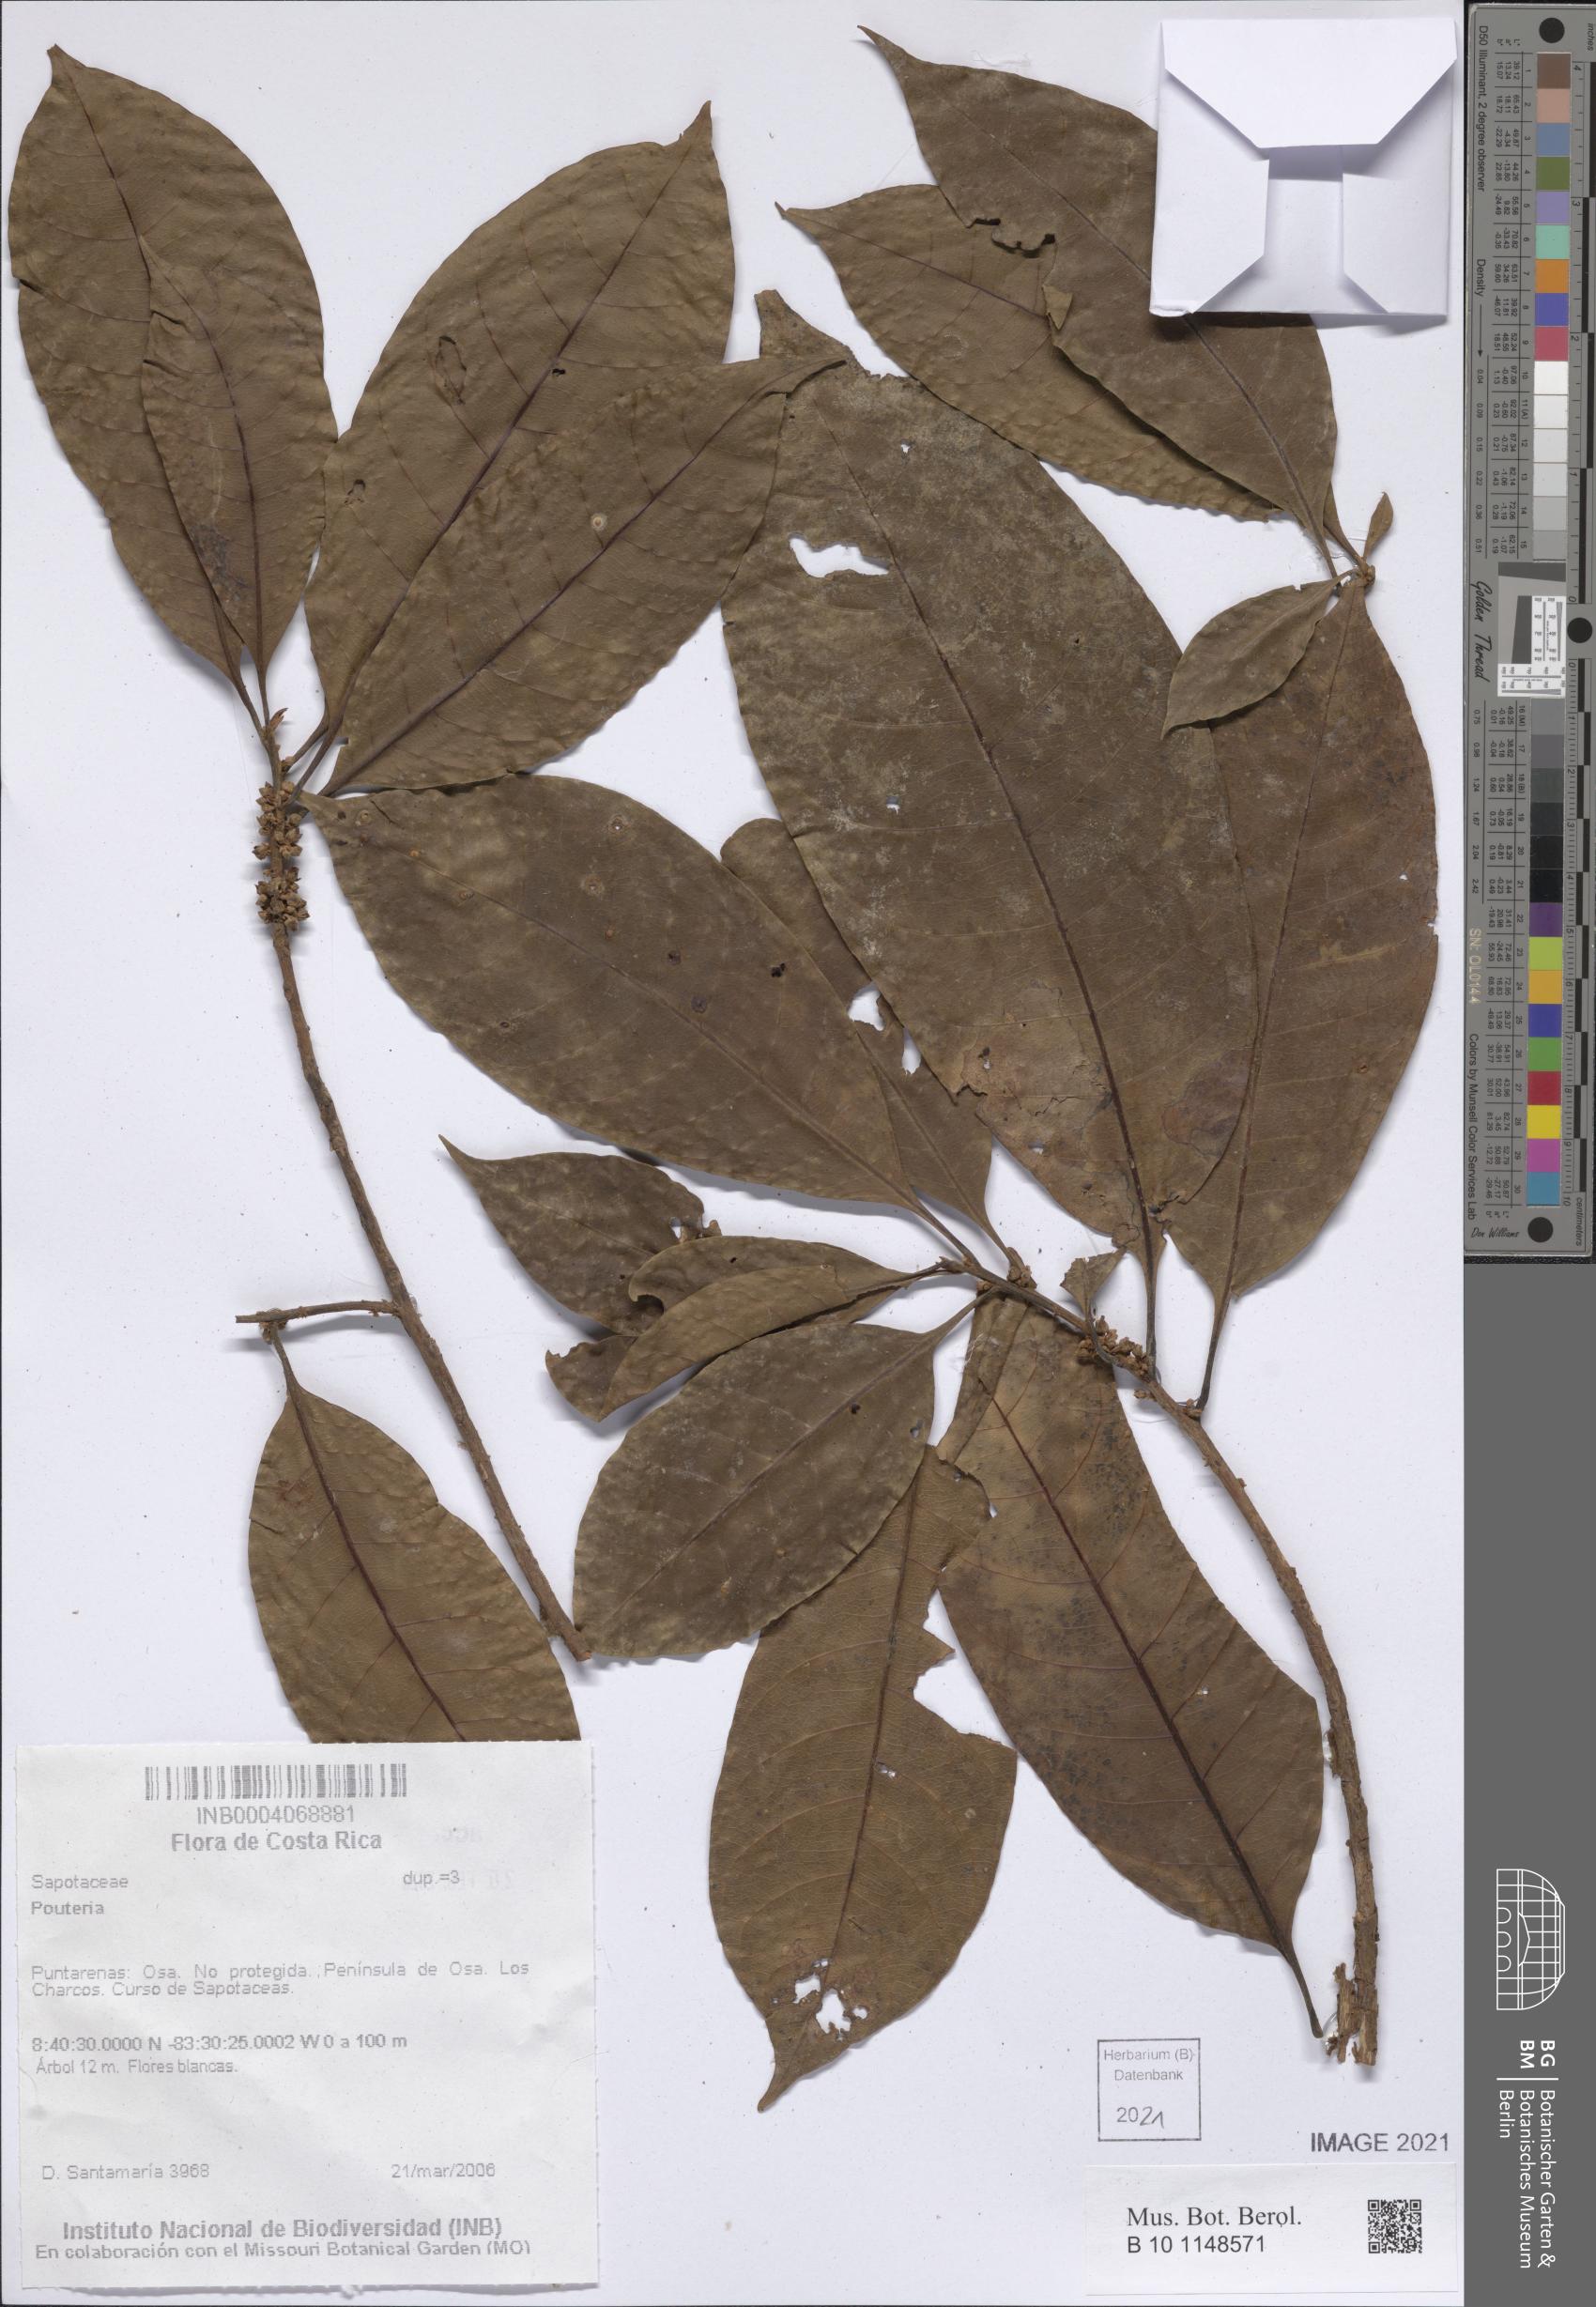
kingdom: Plantae
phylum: Tracheophyta
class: Magnoliopsida
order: Ericales
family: Sapotaceae
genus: Pouteria
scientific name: Pouteria
